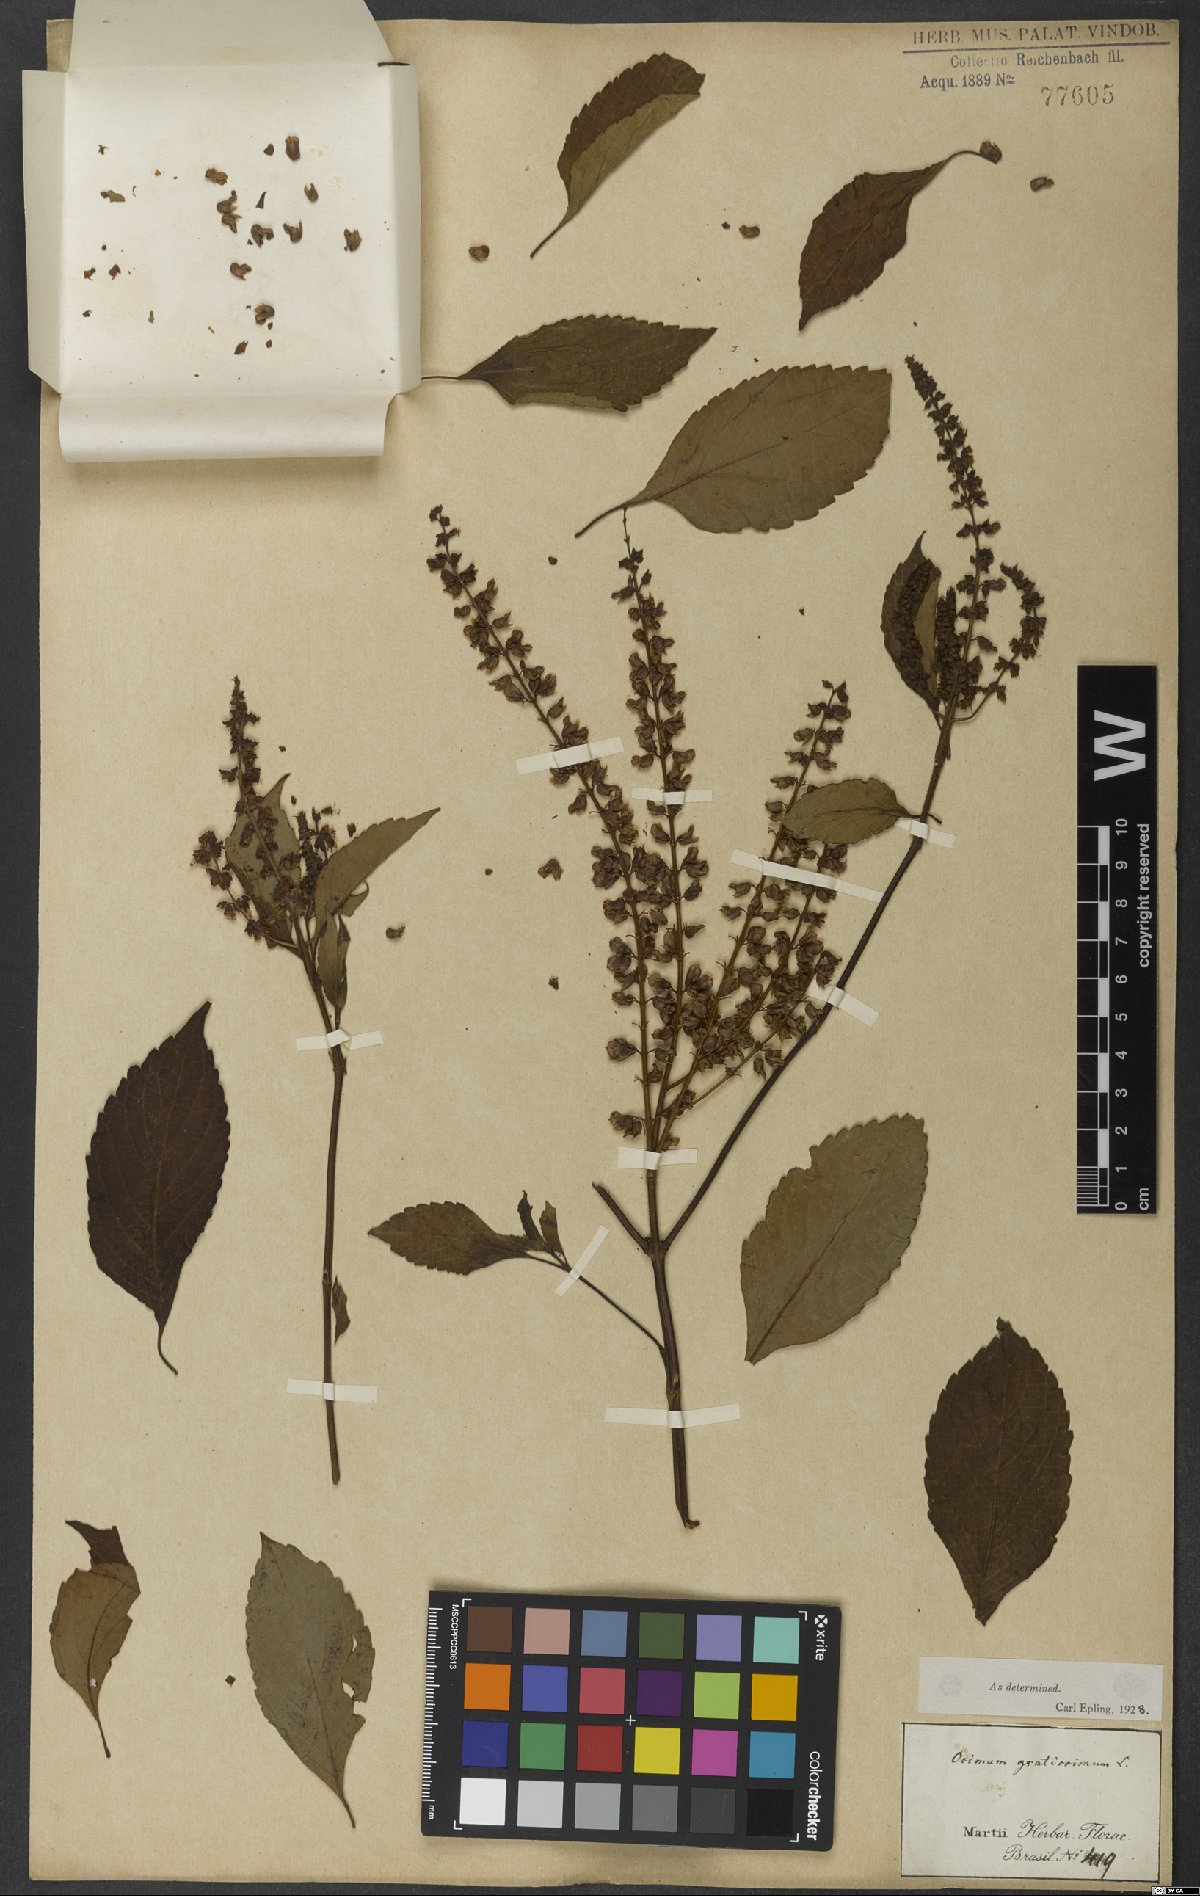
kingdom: Plantae
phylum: Tracheophyta
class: Magnoliopsida
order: Lamiales
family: Lamiaceae
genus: Ocimum
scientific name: Ocimum gratissimum
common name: African basil
